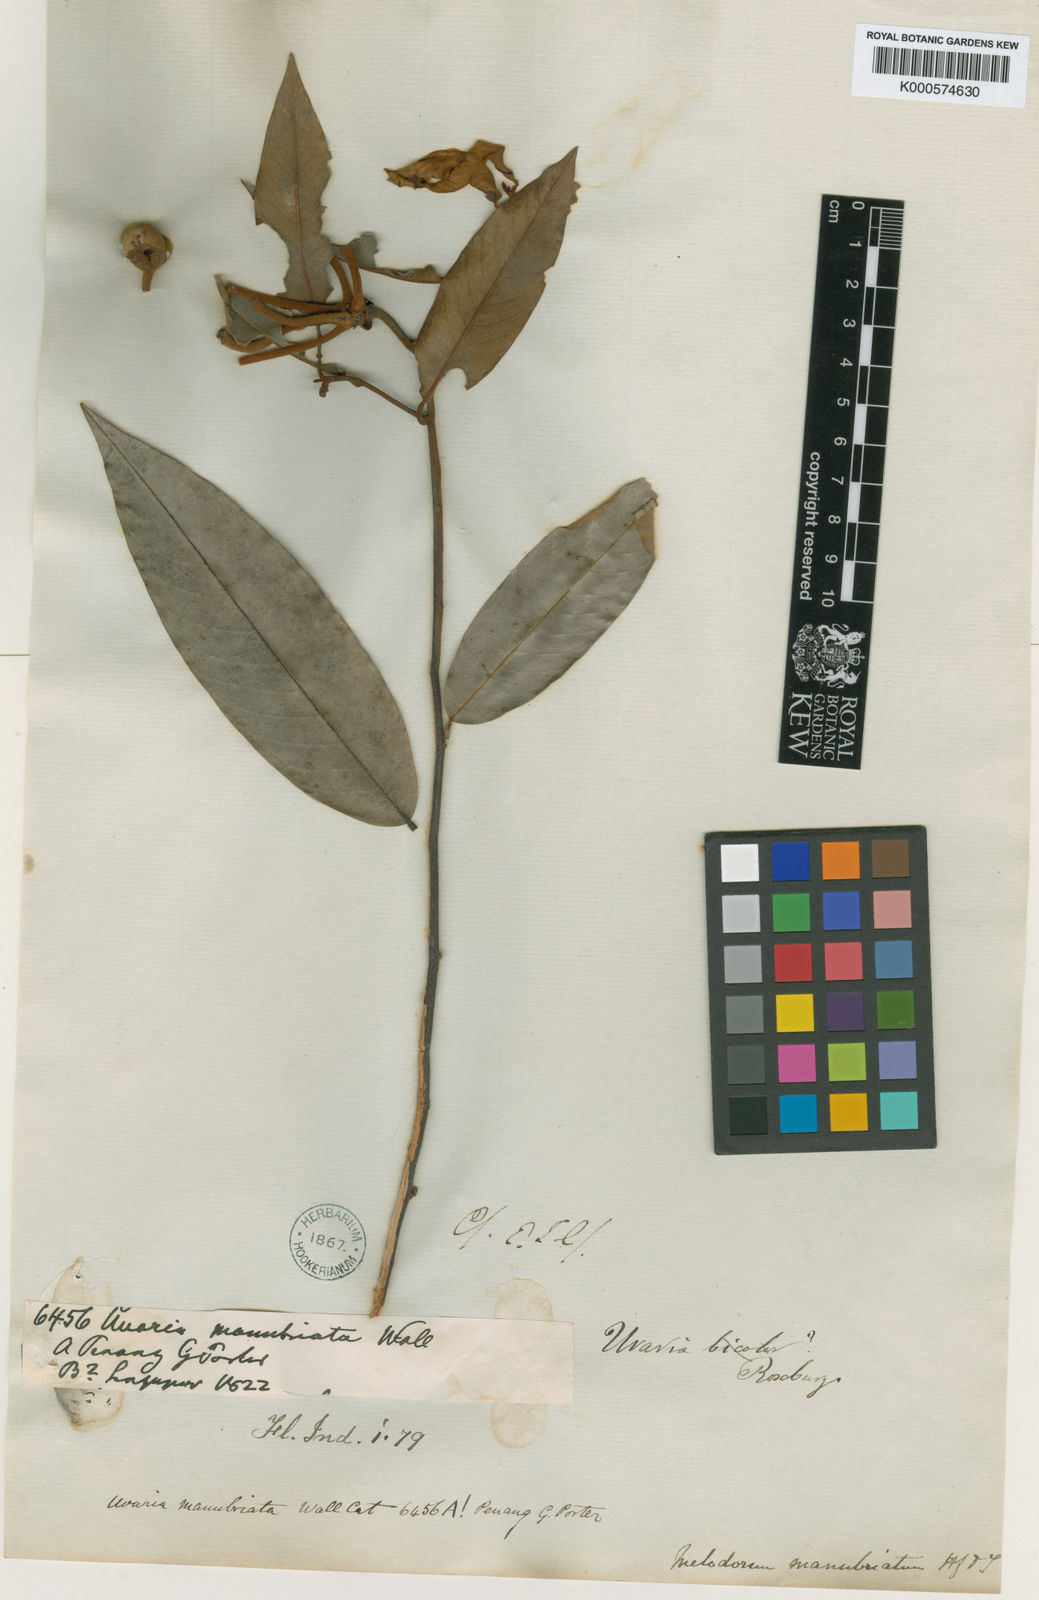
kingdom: Plantae
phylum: Tracheophyta
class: Magnoliopsida
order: Magnoliales
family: Annonaceae
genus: Fissistigma
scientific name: Fissistigma manubriatum
